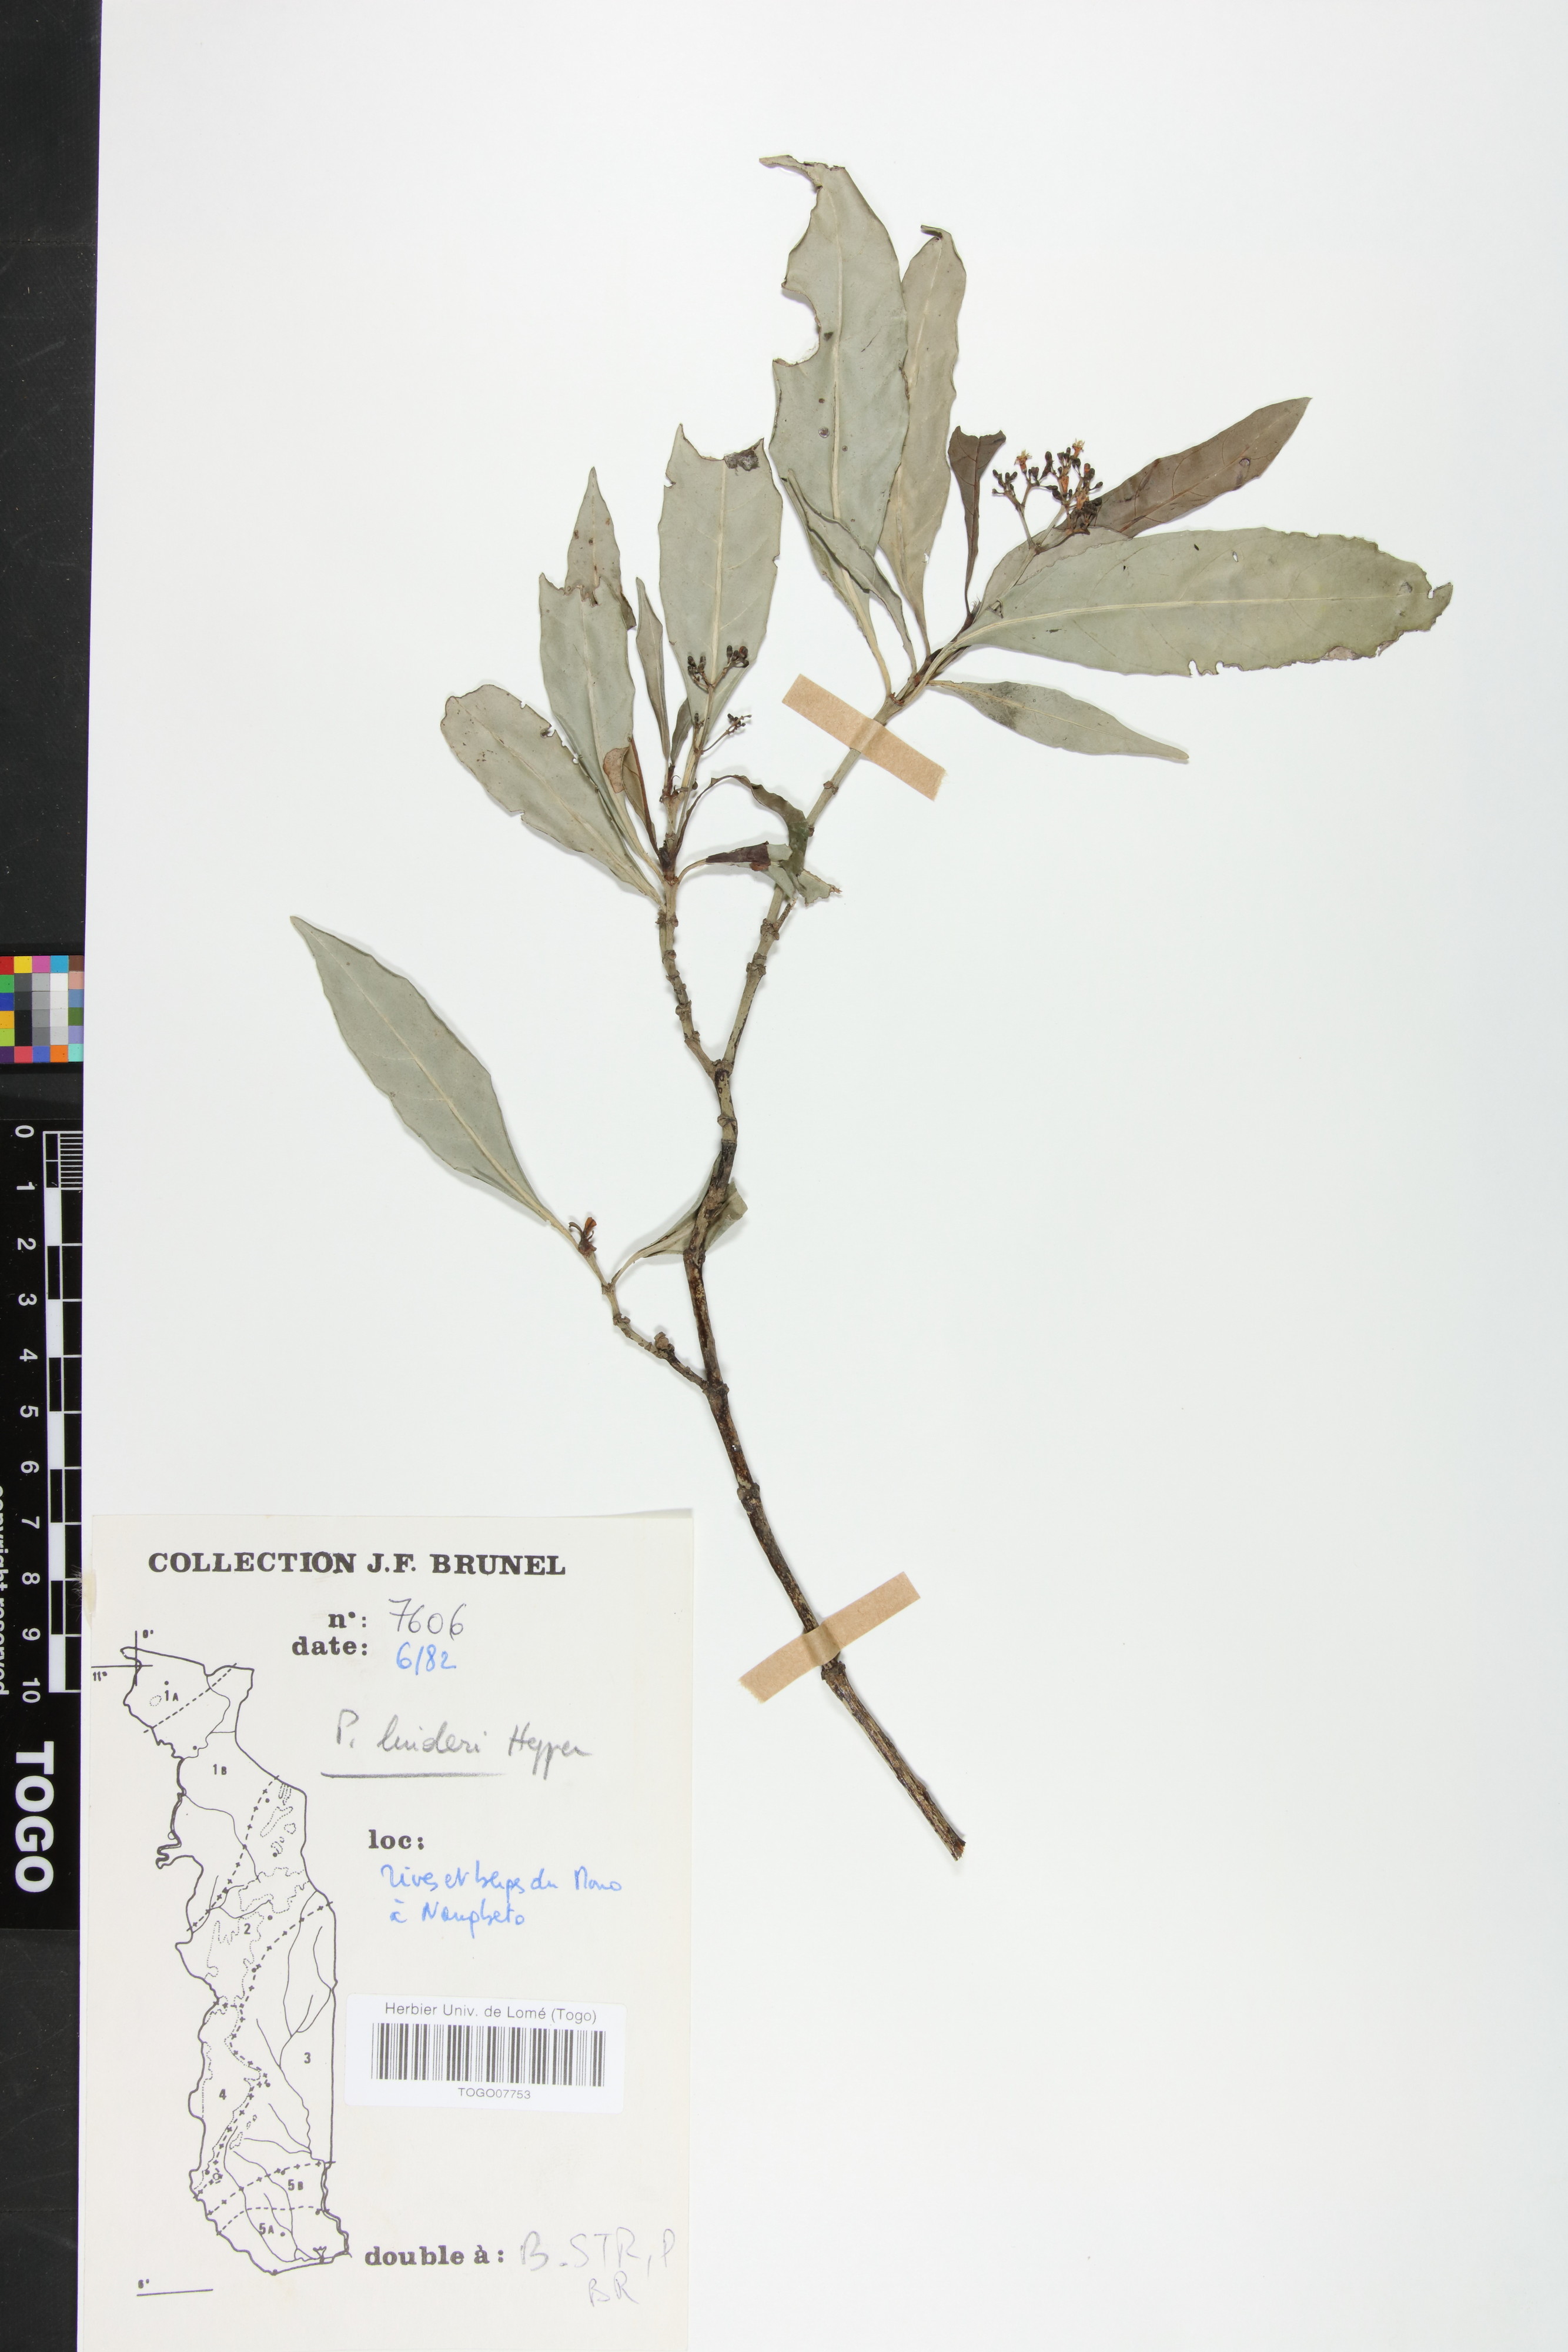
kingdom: Plantae
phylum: Tracheophyta
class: Magnoliopsida
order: Gentianales
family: Rubiaceae
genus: Psychotria
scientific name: Psychotria linderi
